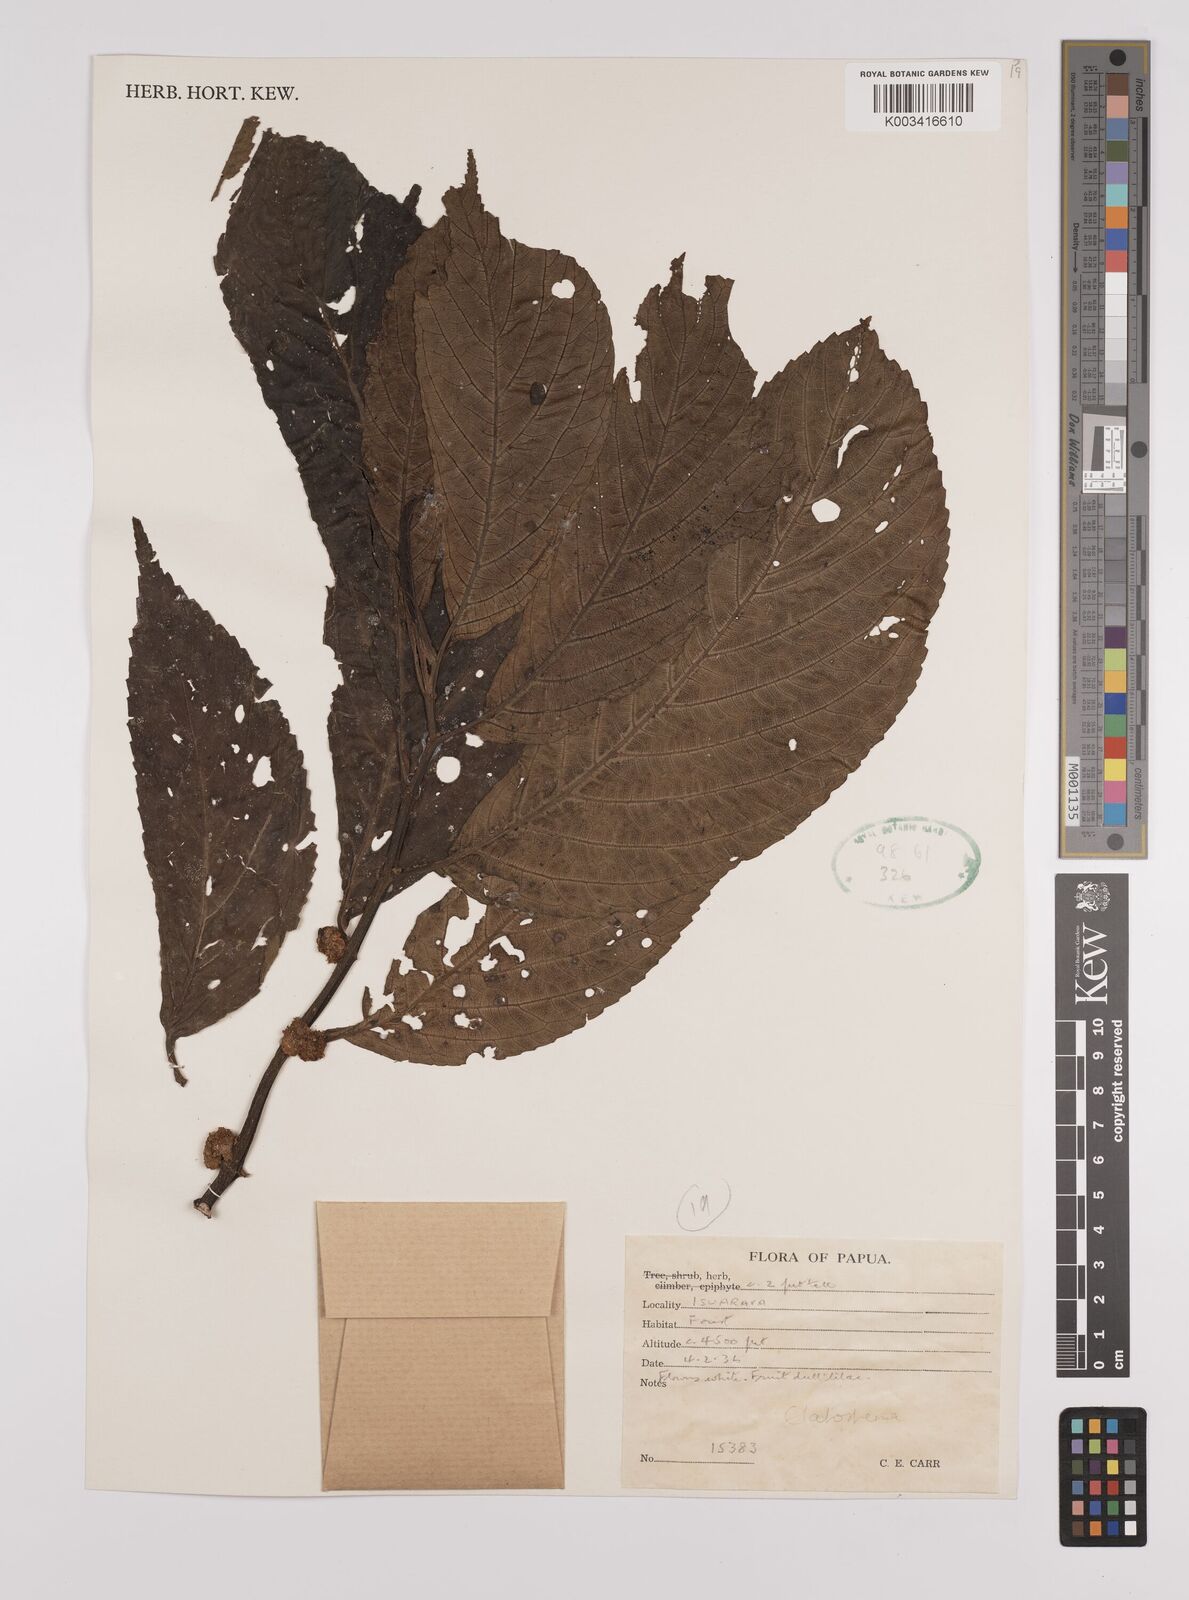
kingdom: Plantae
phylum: Tracheophyta
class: Magnoliopsida
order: Rosales
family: Urticaceae
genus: Elatostema
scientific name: Elatostema
